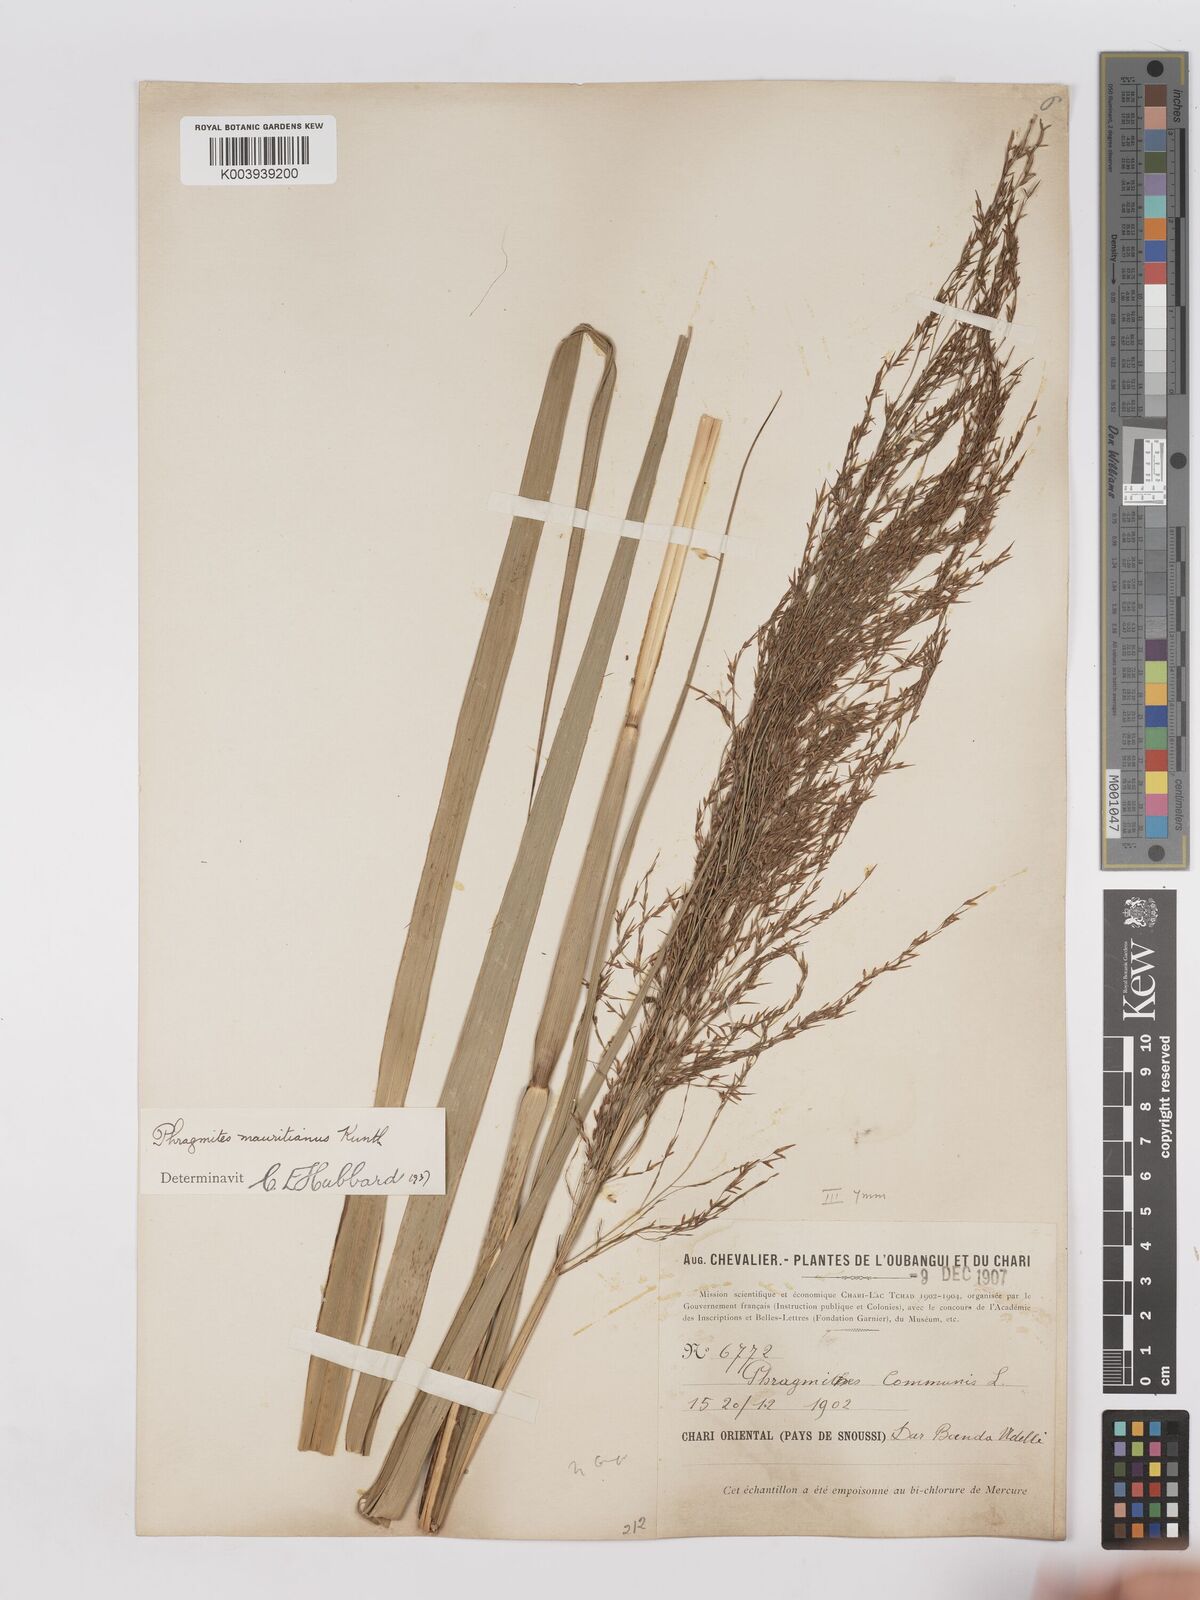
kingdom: Plantae
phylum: Tracheophyta
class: Liliopsida
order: Poales
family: Poaceae
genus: Phragmites
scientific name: Phragmites karka
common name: Tropical reed
